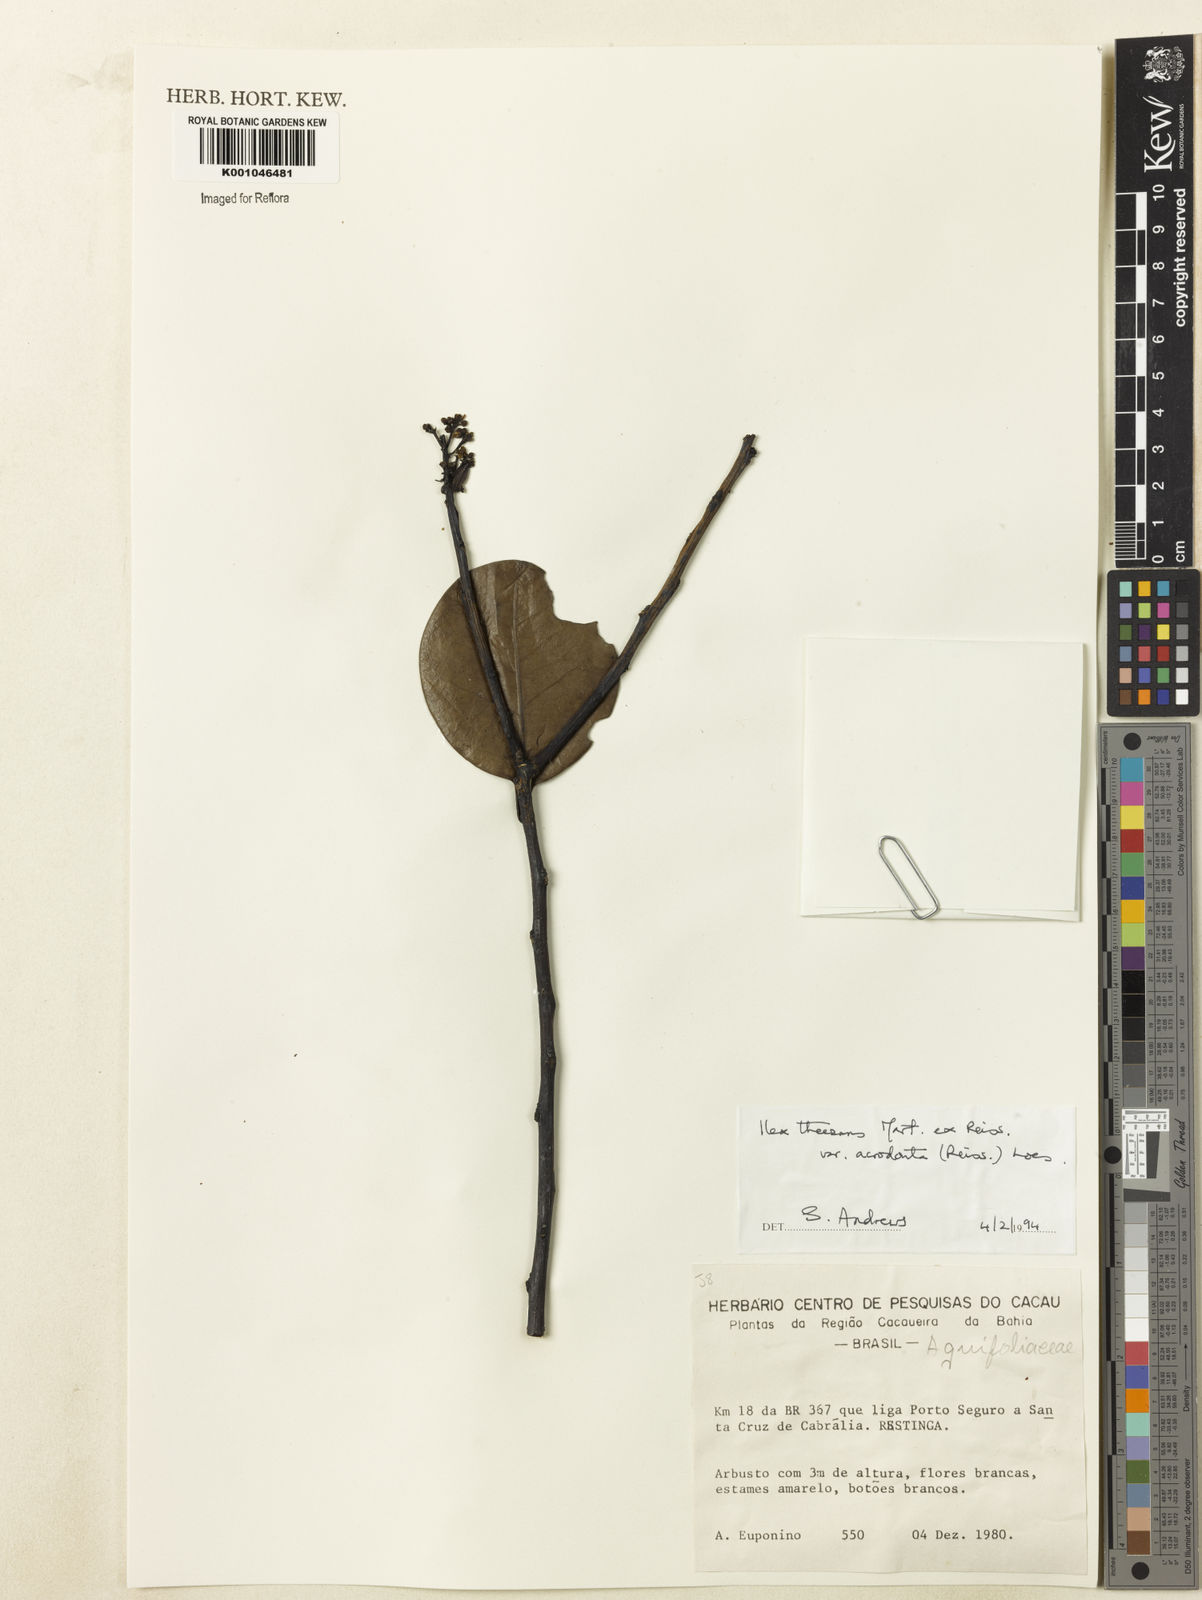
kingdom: Plantae
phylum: Tracheophyta
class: Magnoliopsida
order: Aquifoliales
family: Aquifoliaceae
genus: Ilex
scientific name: Ilex paraguariensis
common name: Paraguay tea
